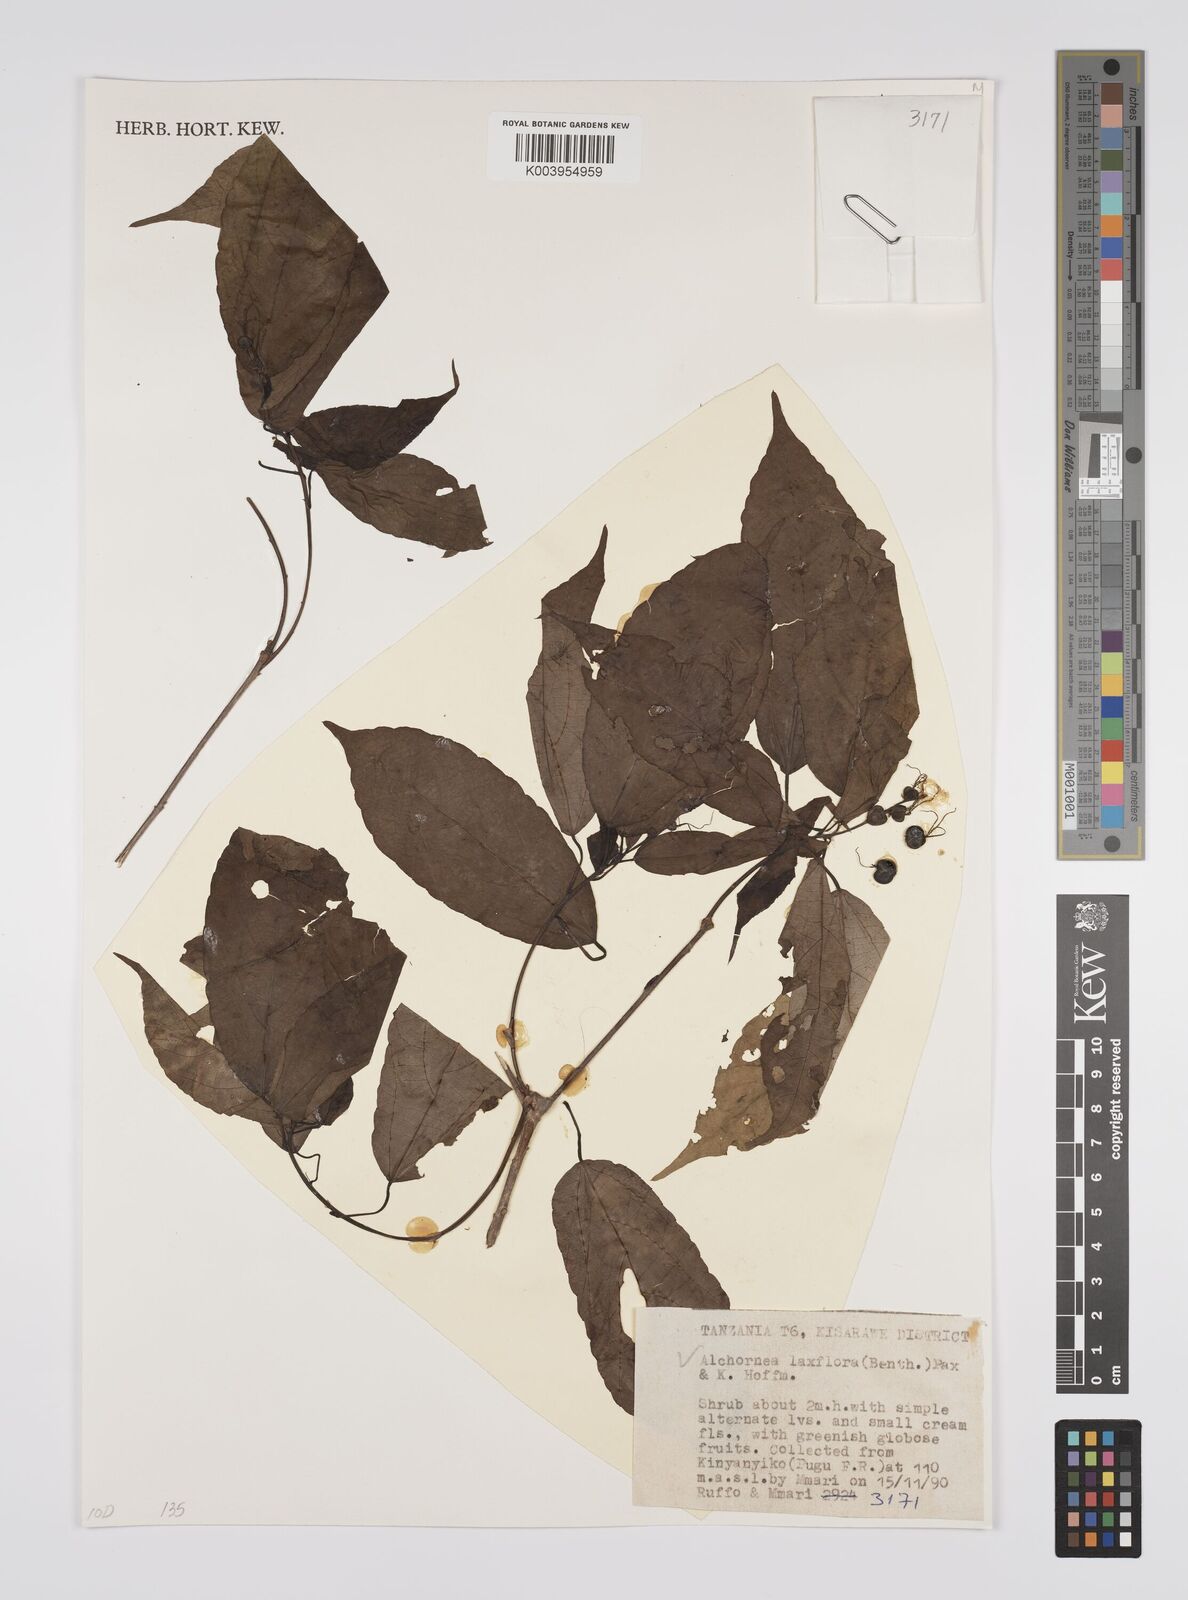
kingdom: Plantae
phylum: Tracheophyta
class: Magnoliopsida
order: Malpighiales
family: Euphorbiaceae
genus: Alchornea
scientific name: Alchornea laxiflora
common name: Lowveld bead-string
